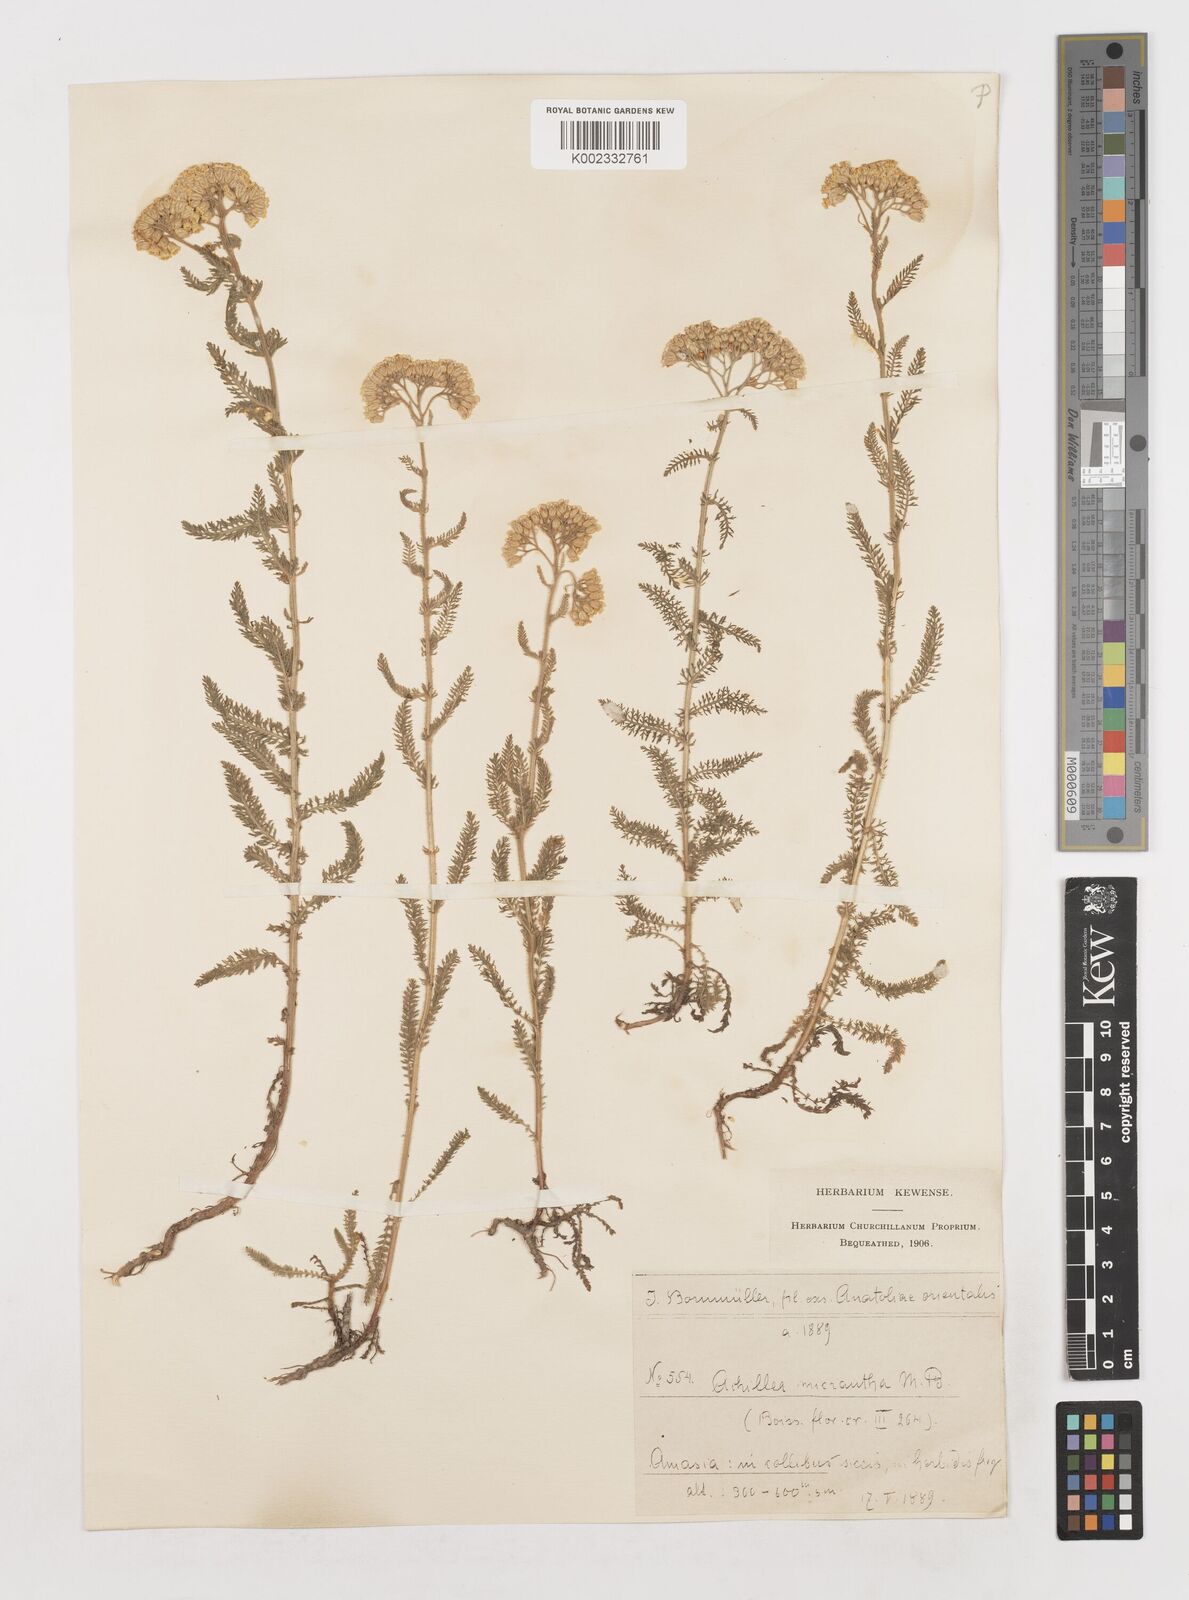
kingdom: Plantae
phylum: Tracheophyta
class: Magnoliopsida
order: Asterales
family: Asteraceae
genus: Achillea
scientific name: Achillea micrantha
